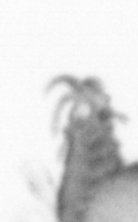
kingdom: Animalia
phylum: Annelida
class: Polychaeta
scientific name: Polychaeta
